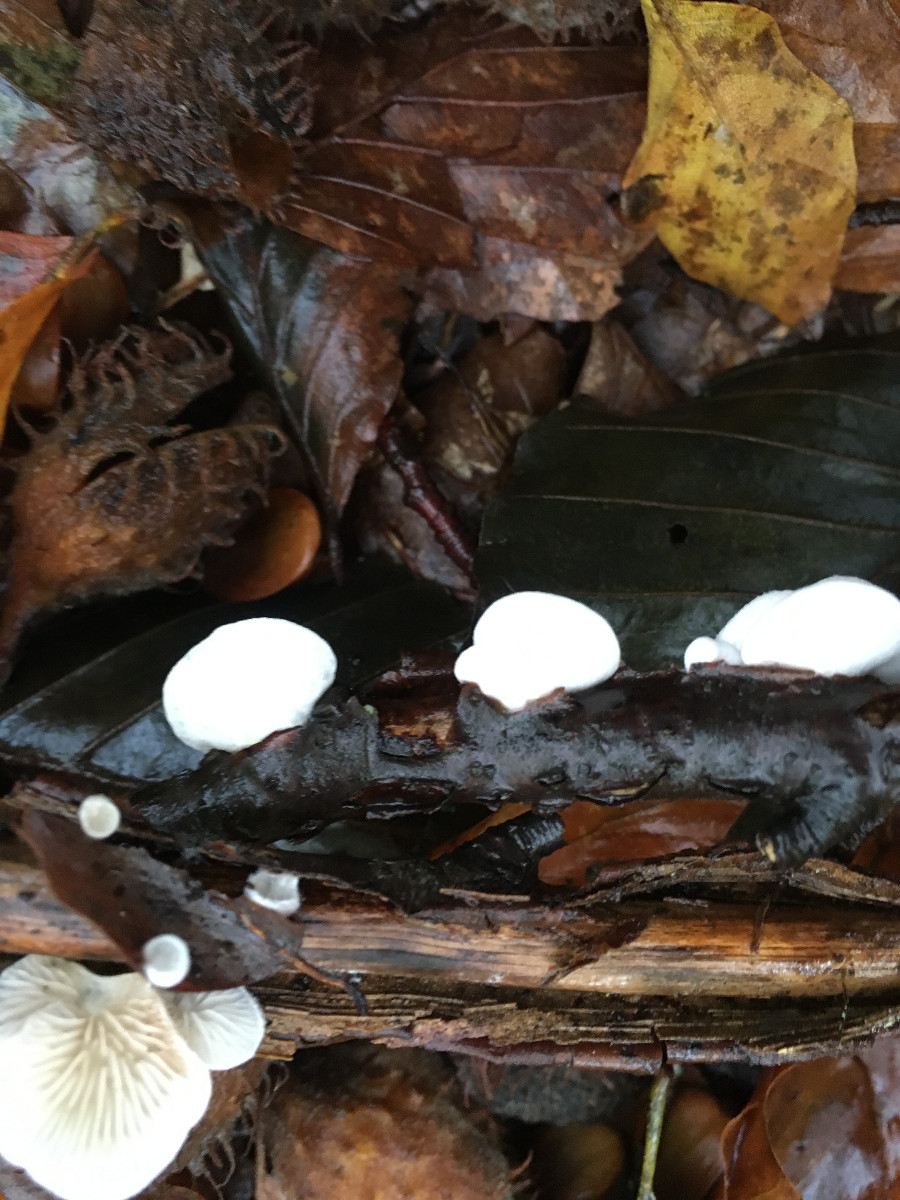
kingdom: Fungi
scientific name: Fungi
